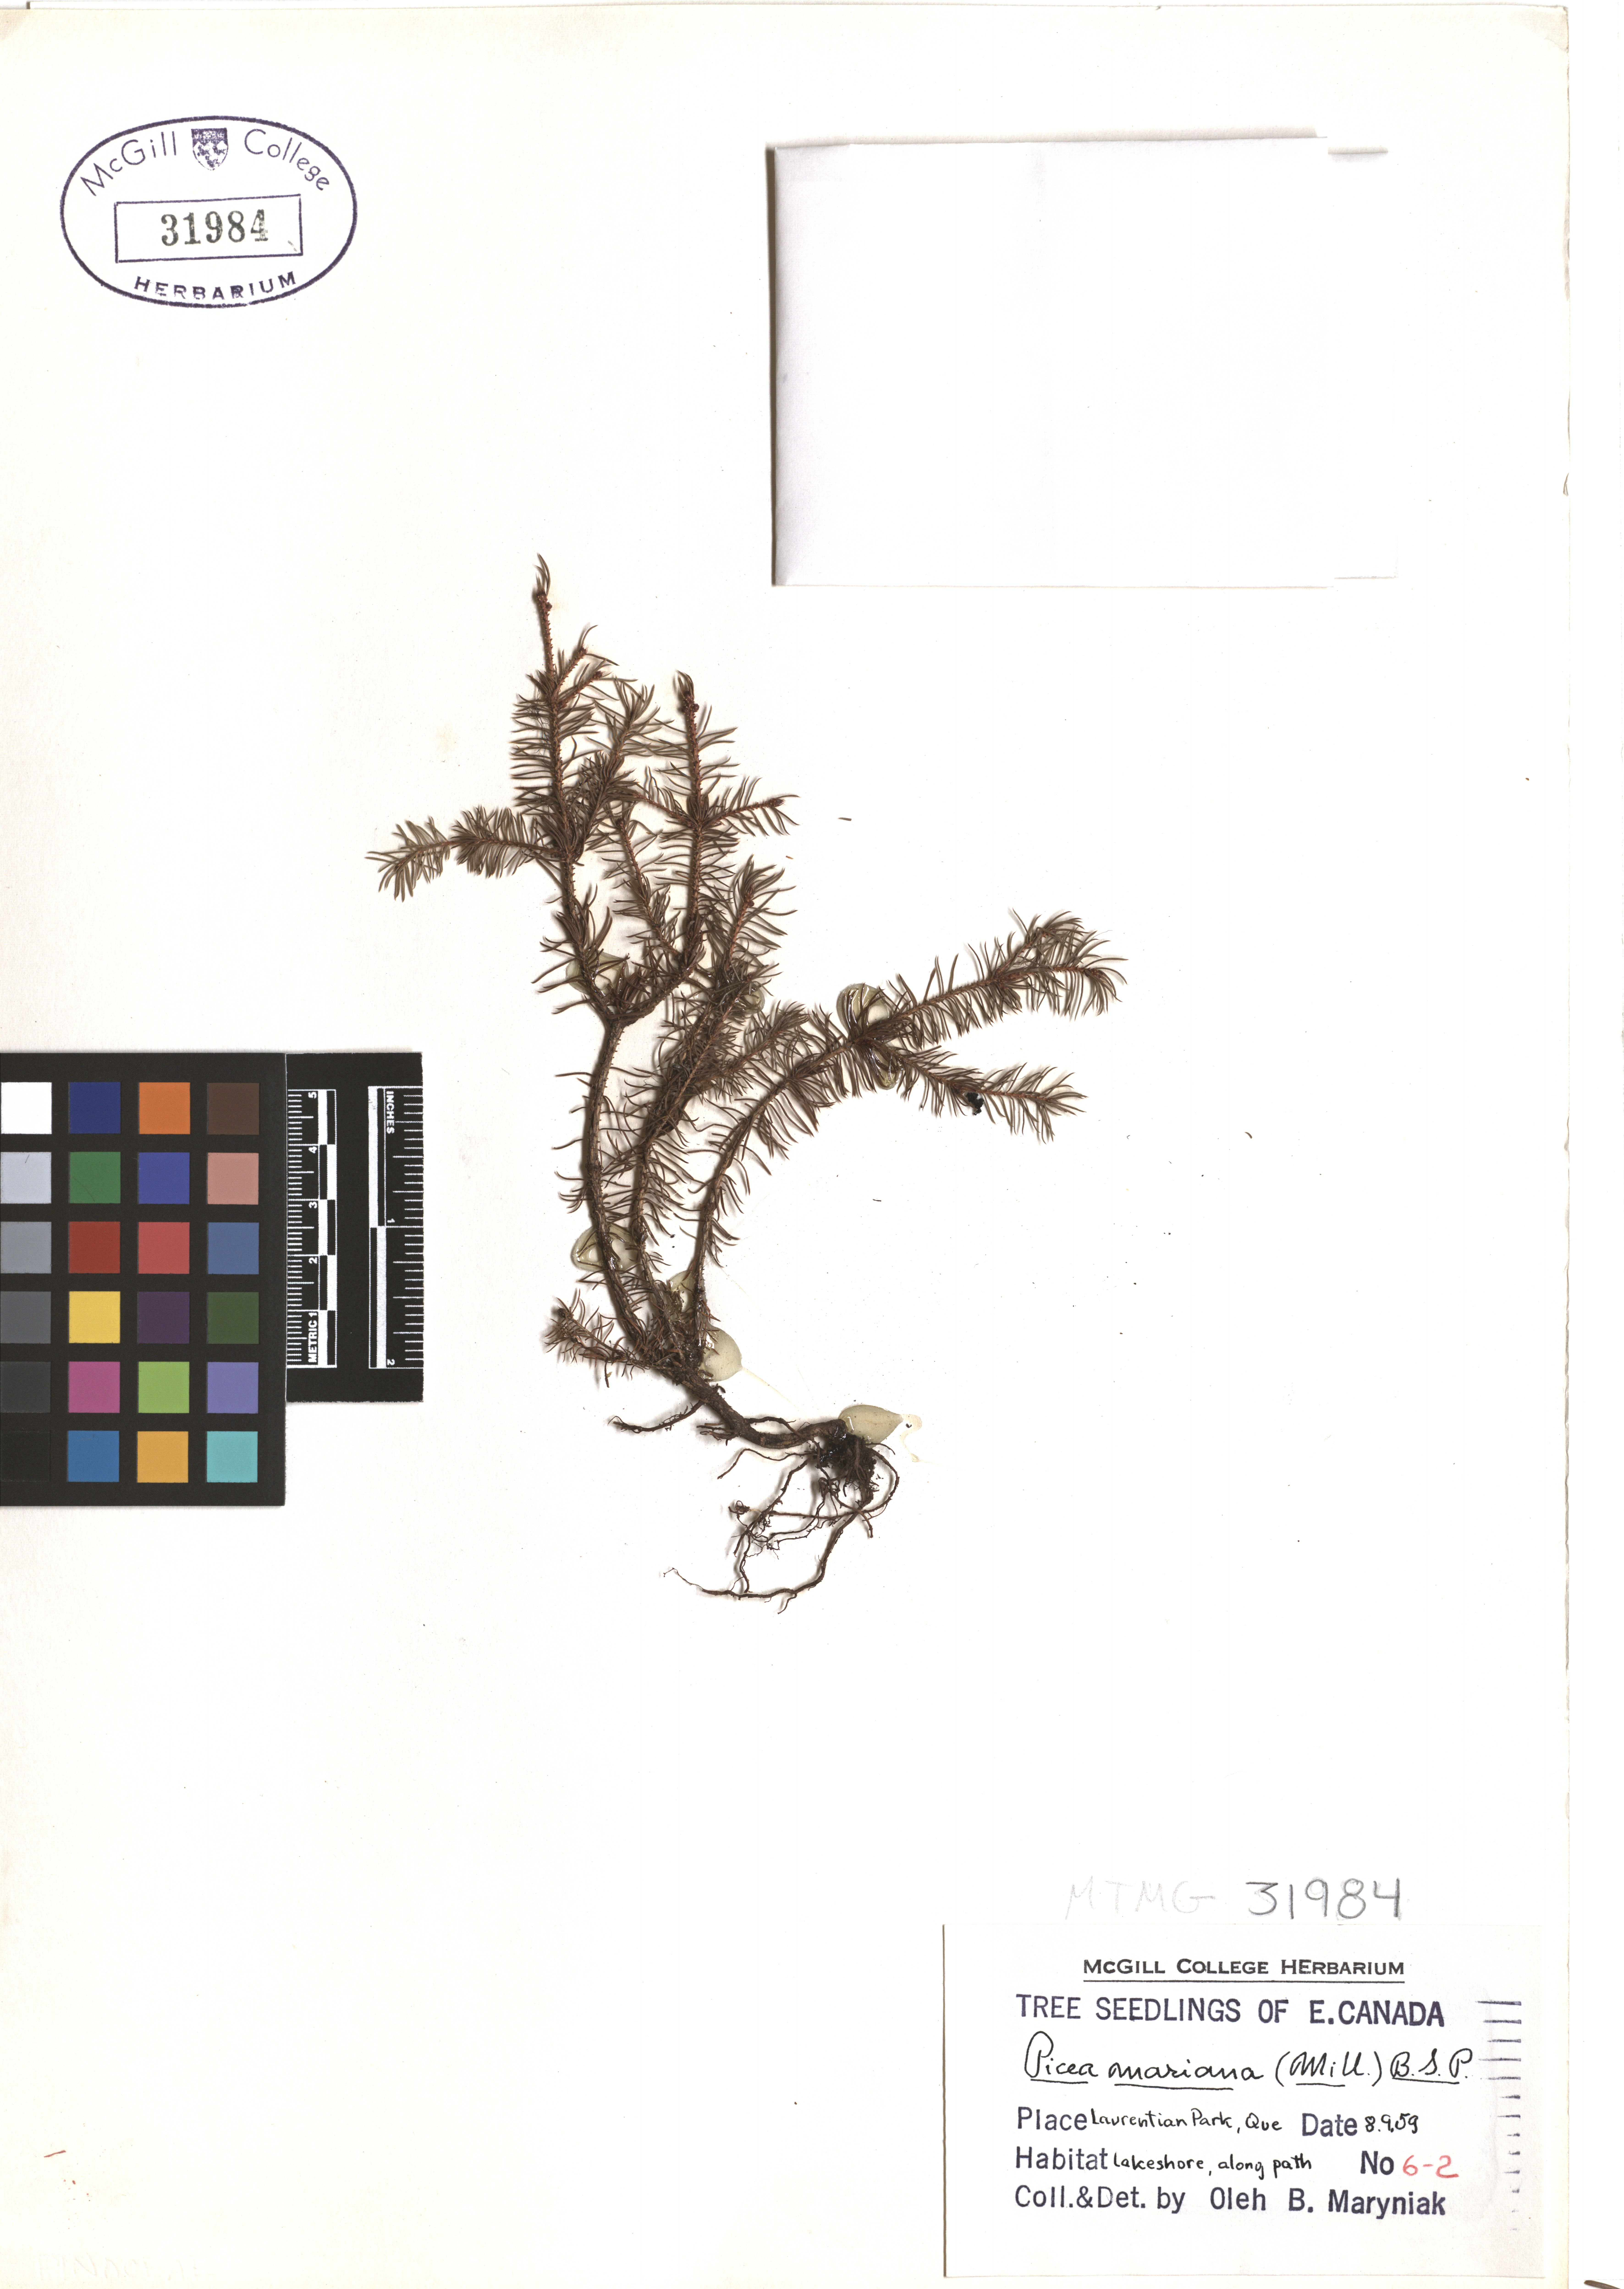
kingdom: Plantae
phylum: Tracheophyta
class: Pinopsida
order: Pinales
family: Pinaceae
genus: Picea
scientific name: Picea mariana
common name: Black spruce
